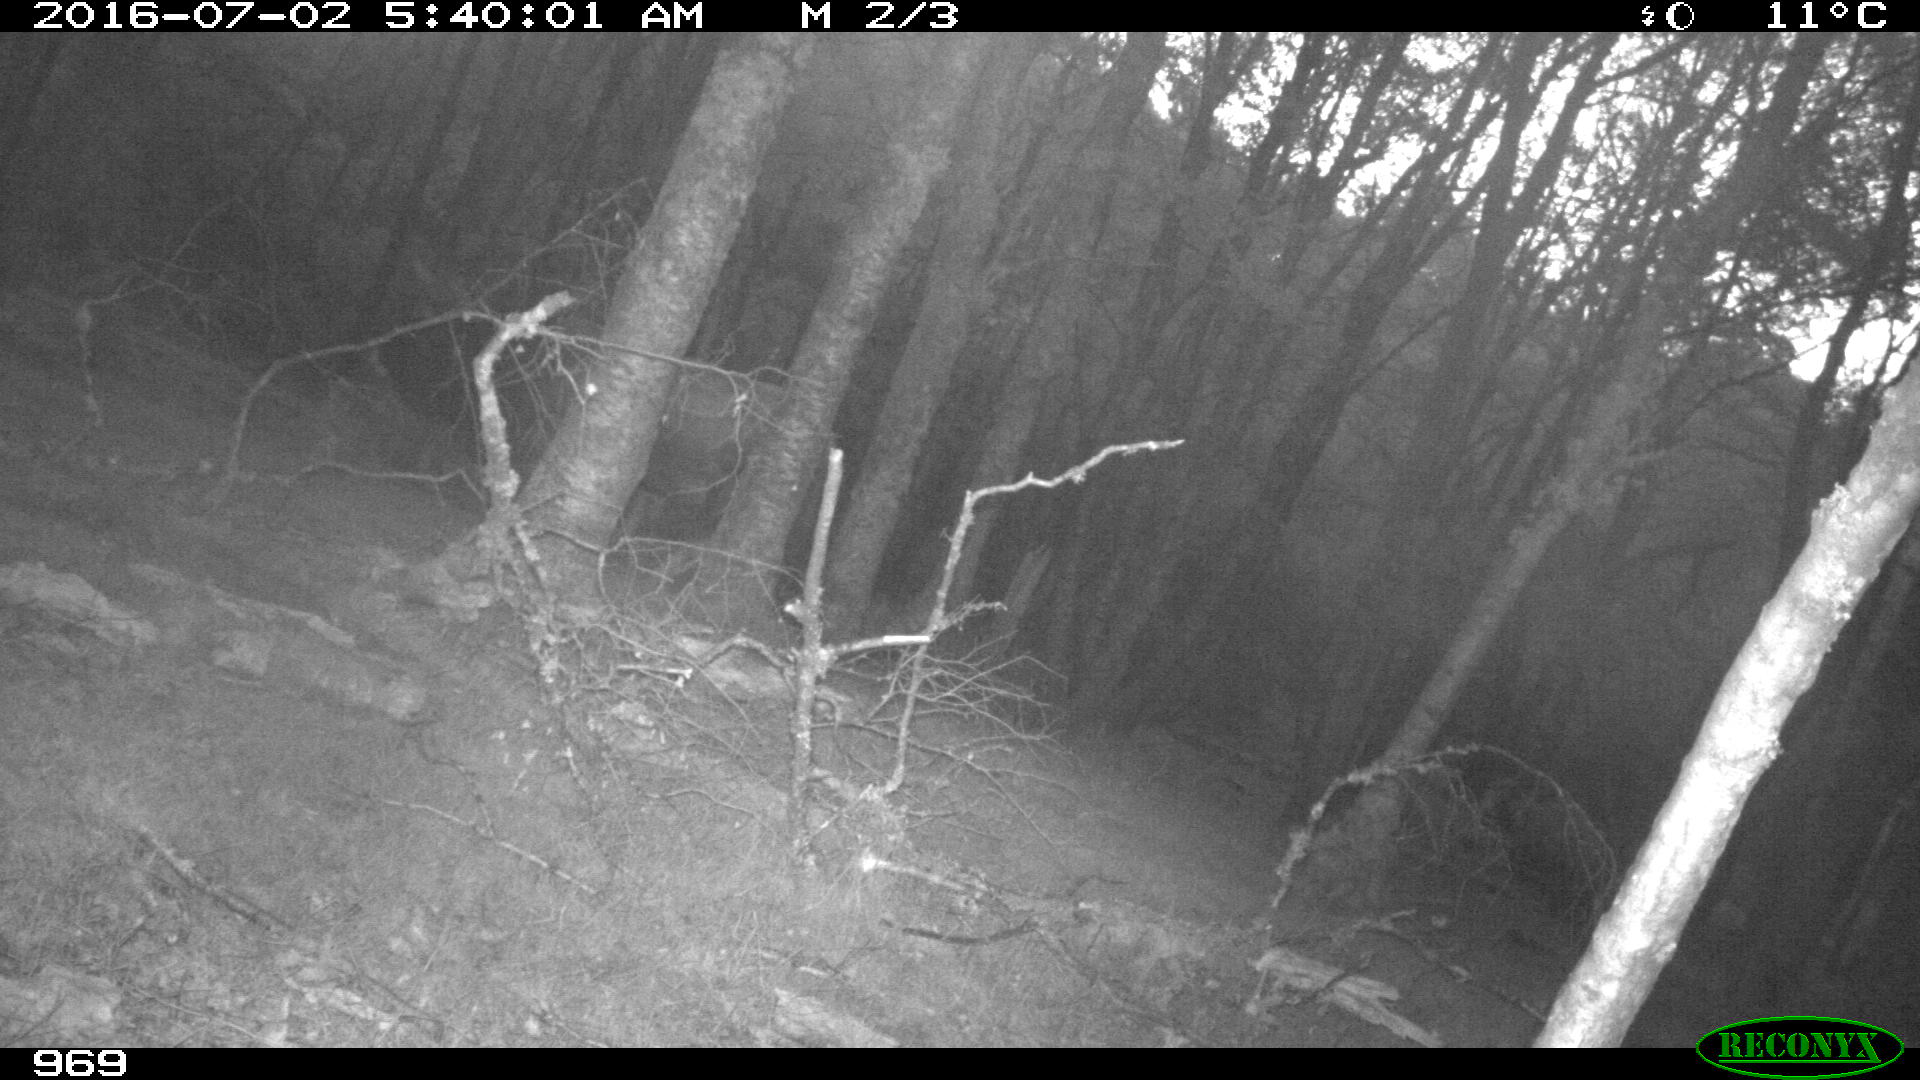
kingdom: Animalia
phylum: Chordata
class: Mammalia
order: Artiodactyla
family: Bovidae
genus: Bos
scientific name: Bos taurus
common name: Domesticated cattle
